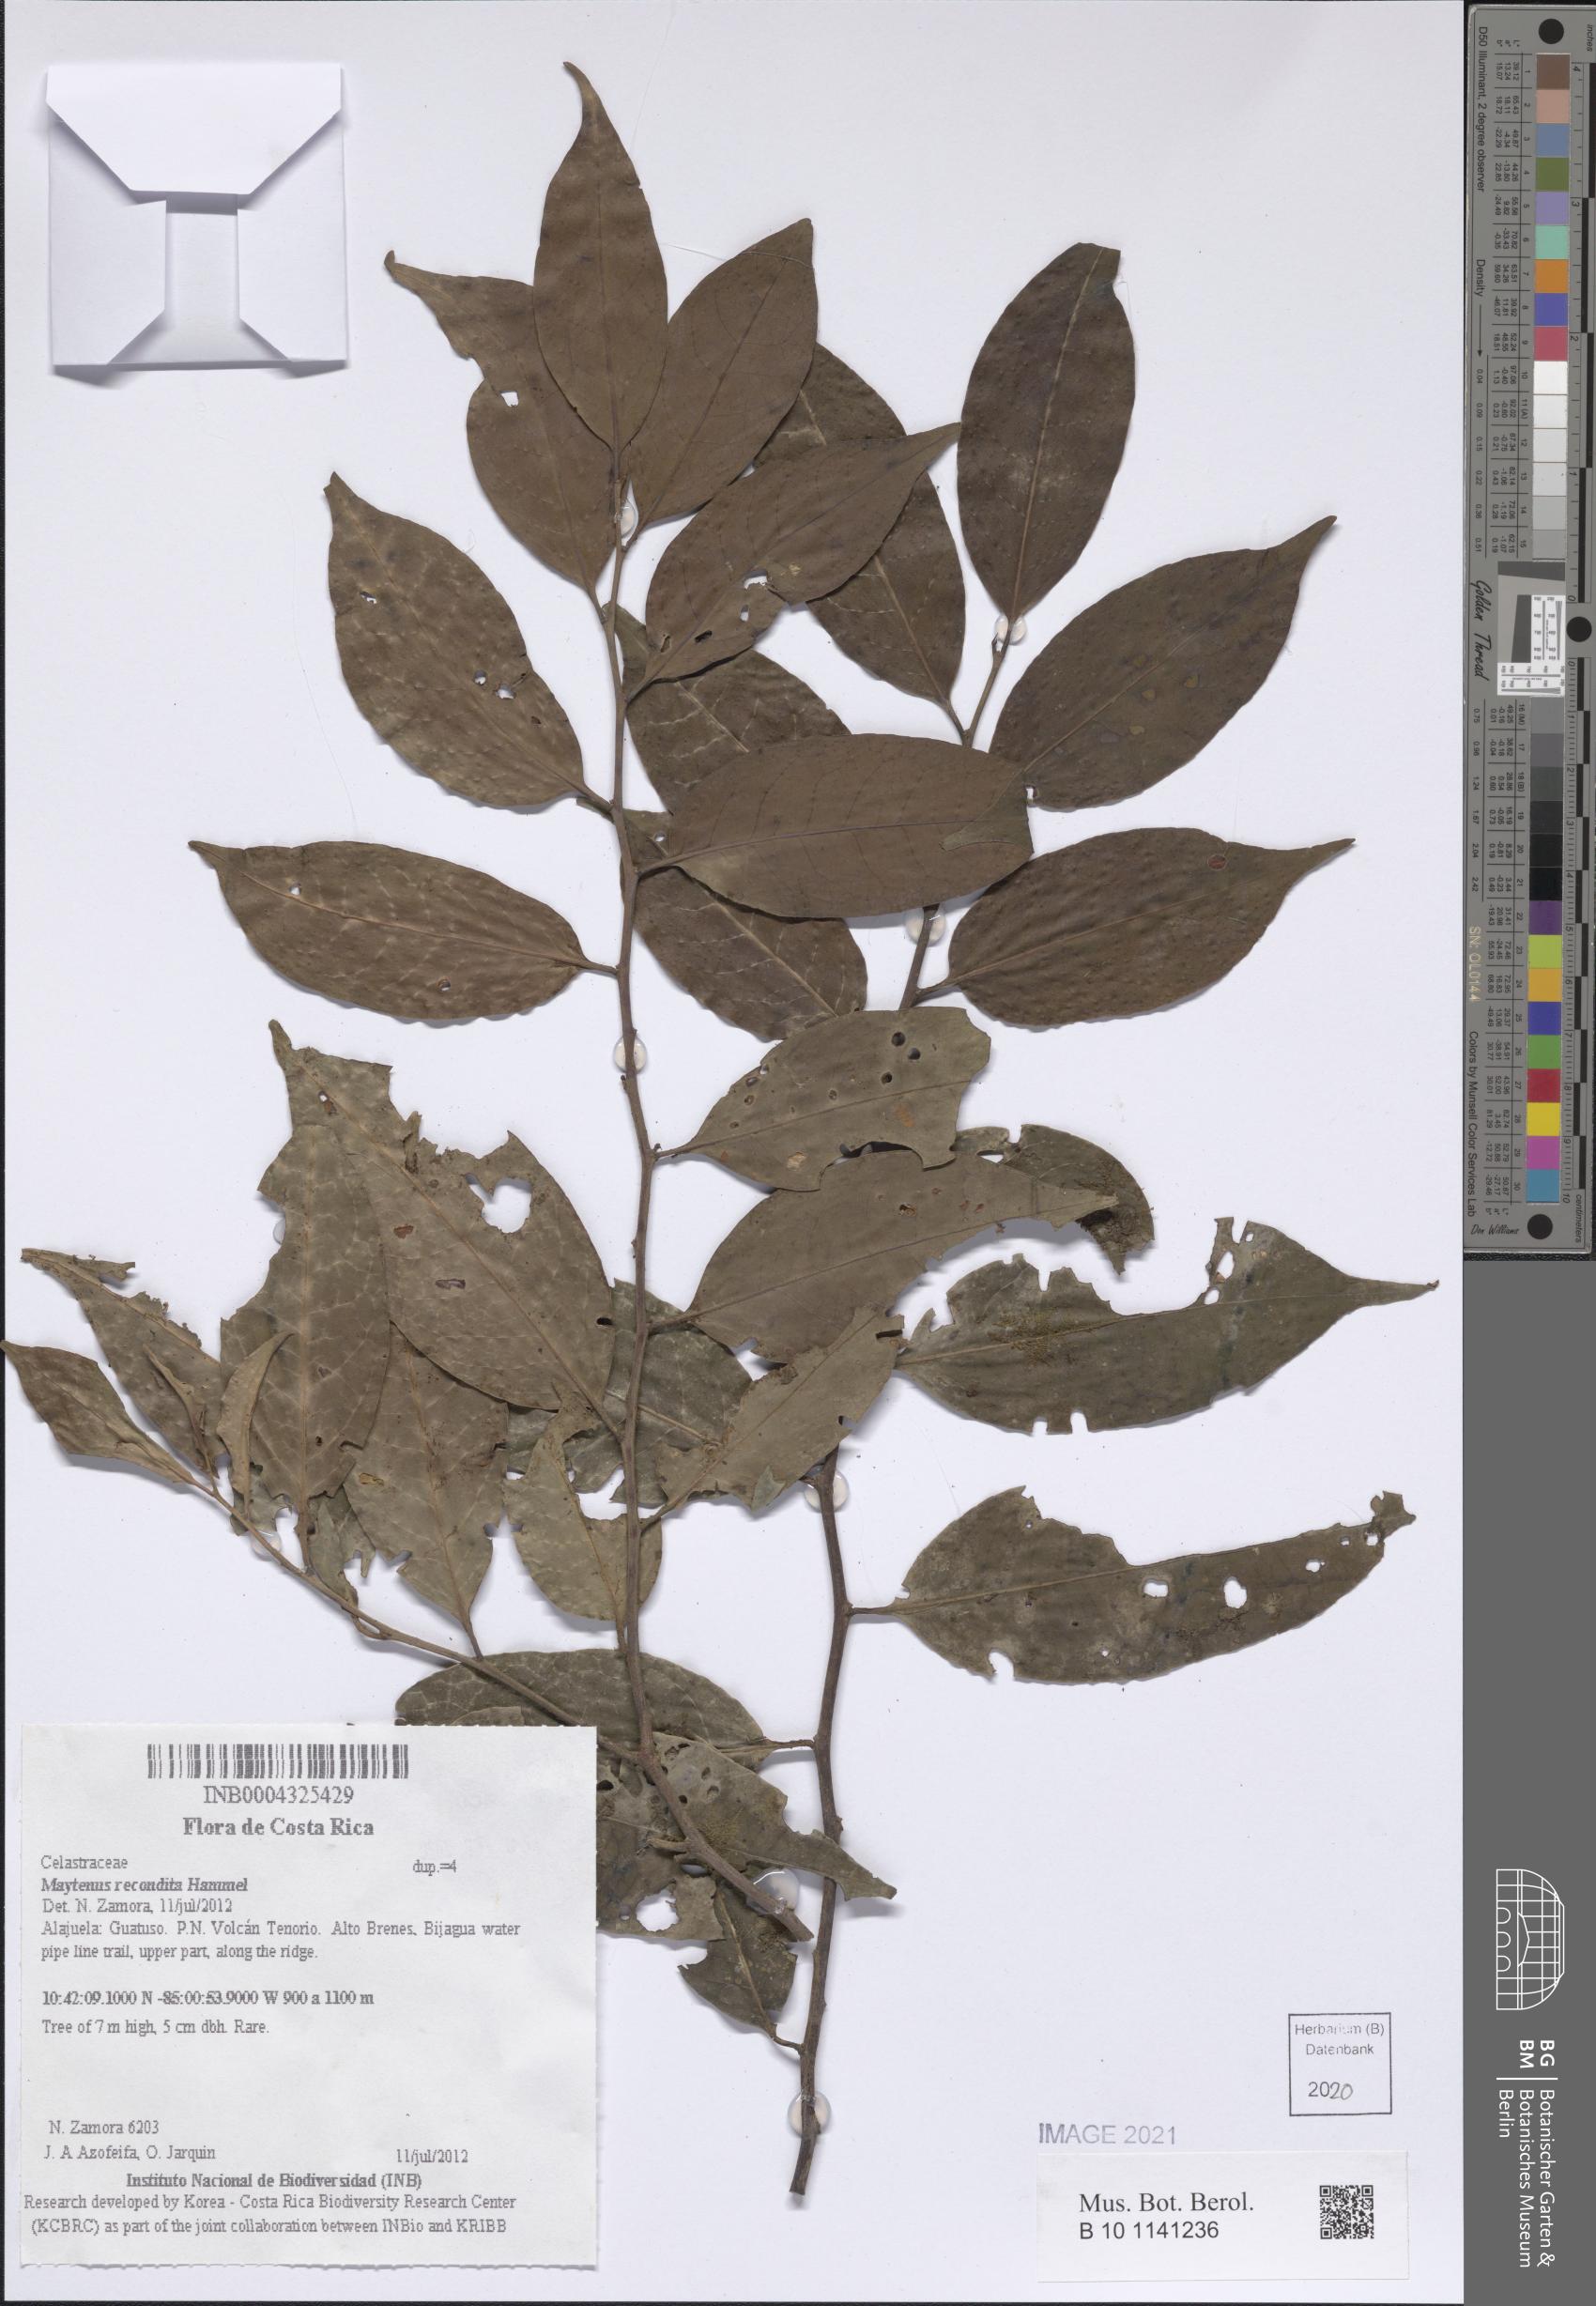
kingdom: Plantae
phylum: Tracheophyta
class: Magnoliopsida
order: Celastrales
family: Celastraceae
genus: Monteverdia
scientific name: Monteverdia recondita
